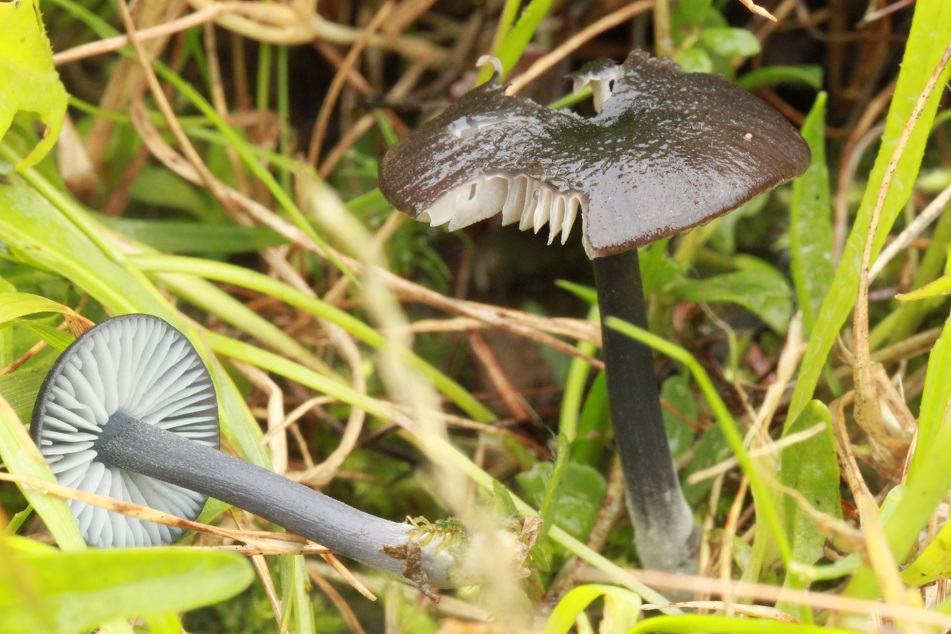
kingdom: Fungi
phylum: Basidiomycota
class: Agaricomycetes
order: Agaricales
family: Entolomataceae
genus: Entoloma
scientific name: Entoloma chalybeum
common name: blåbladet rødblad
